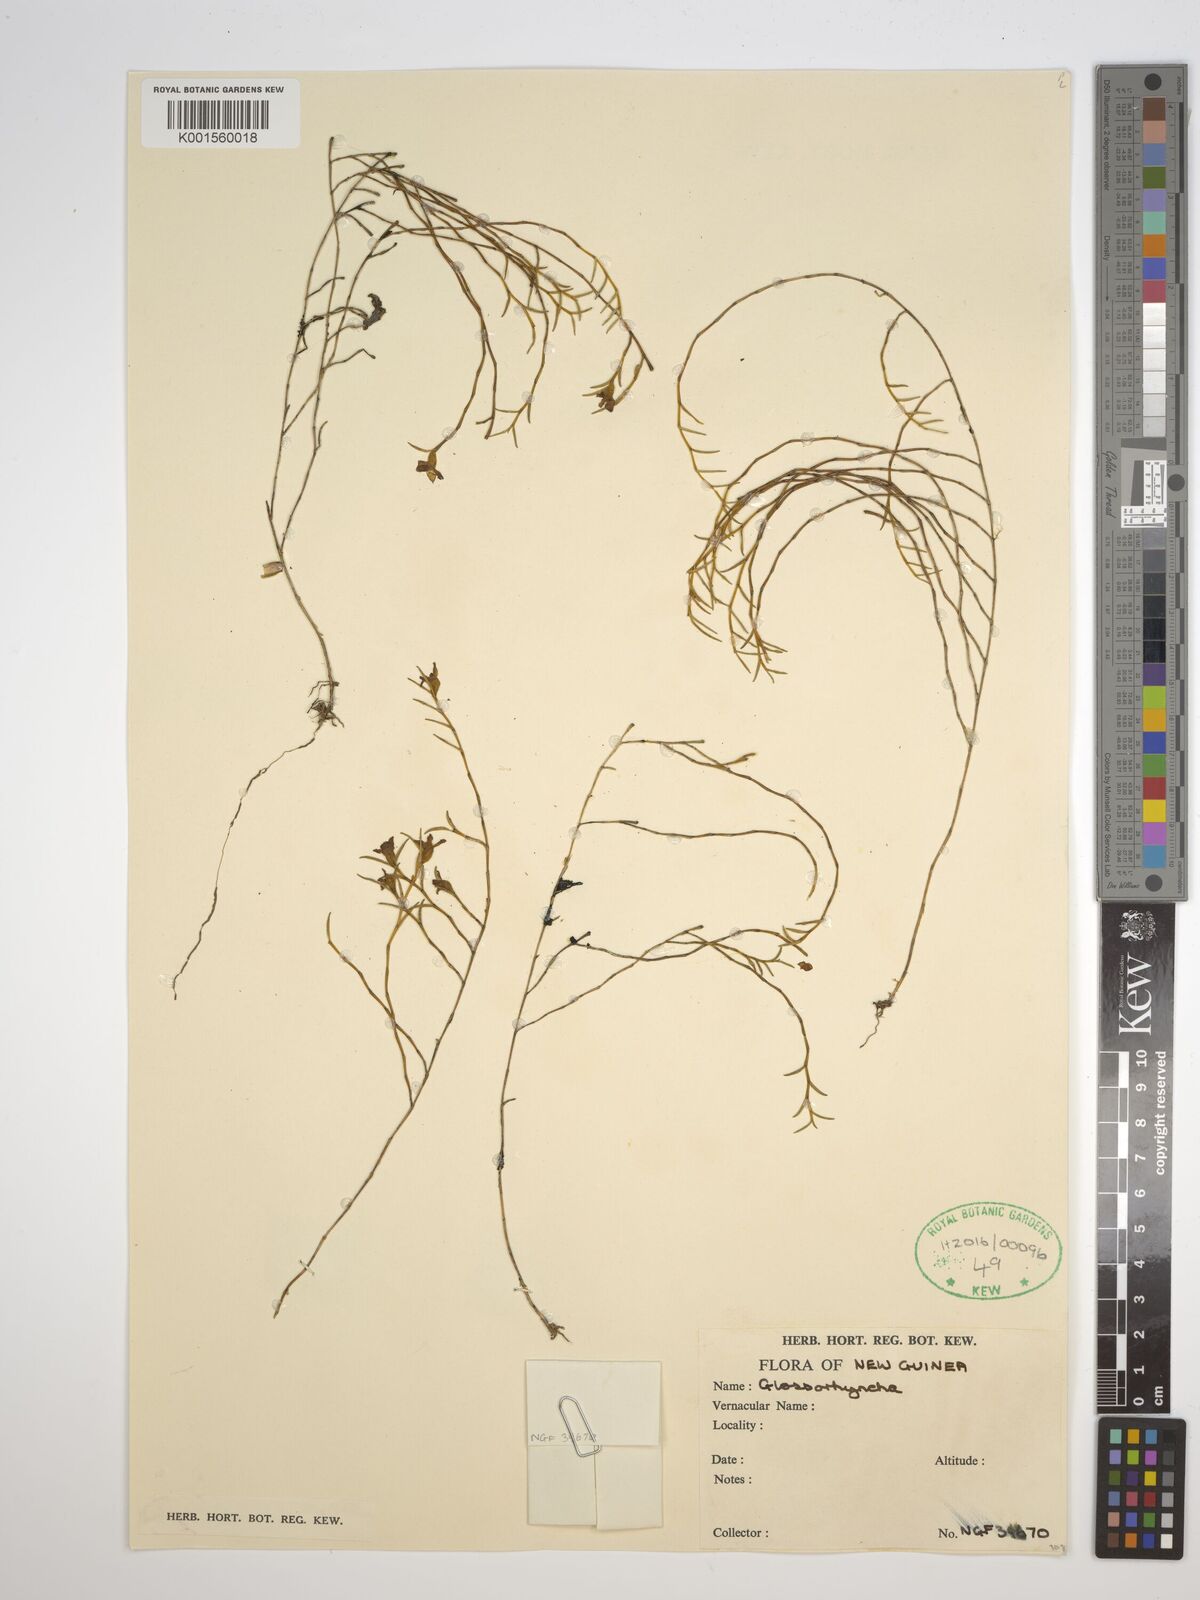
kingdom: Plantae
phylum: Tracheophyta
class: Liliopsida
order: Asparagales
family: Orchidaceae
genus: Glomera
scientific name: Glomera
